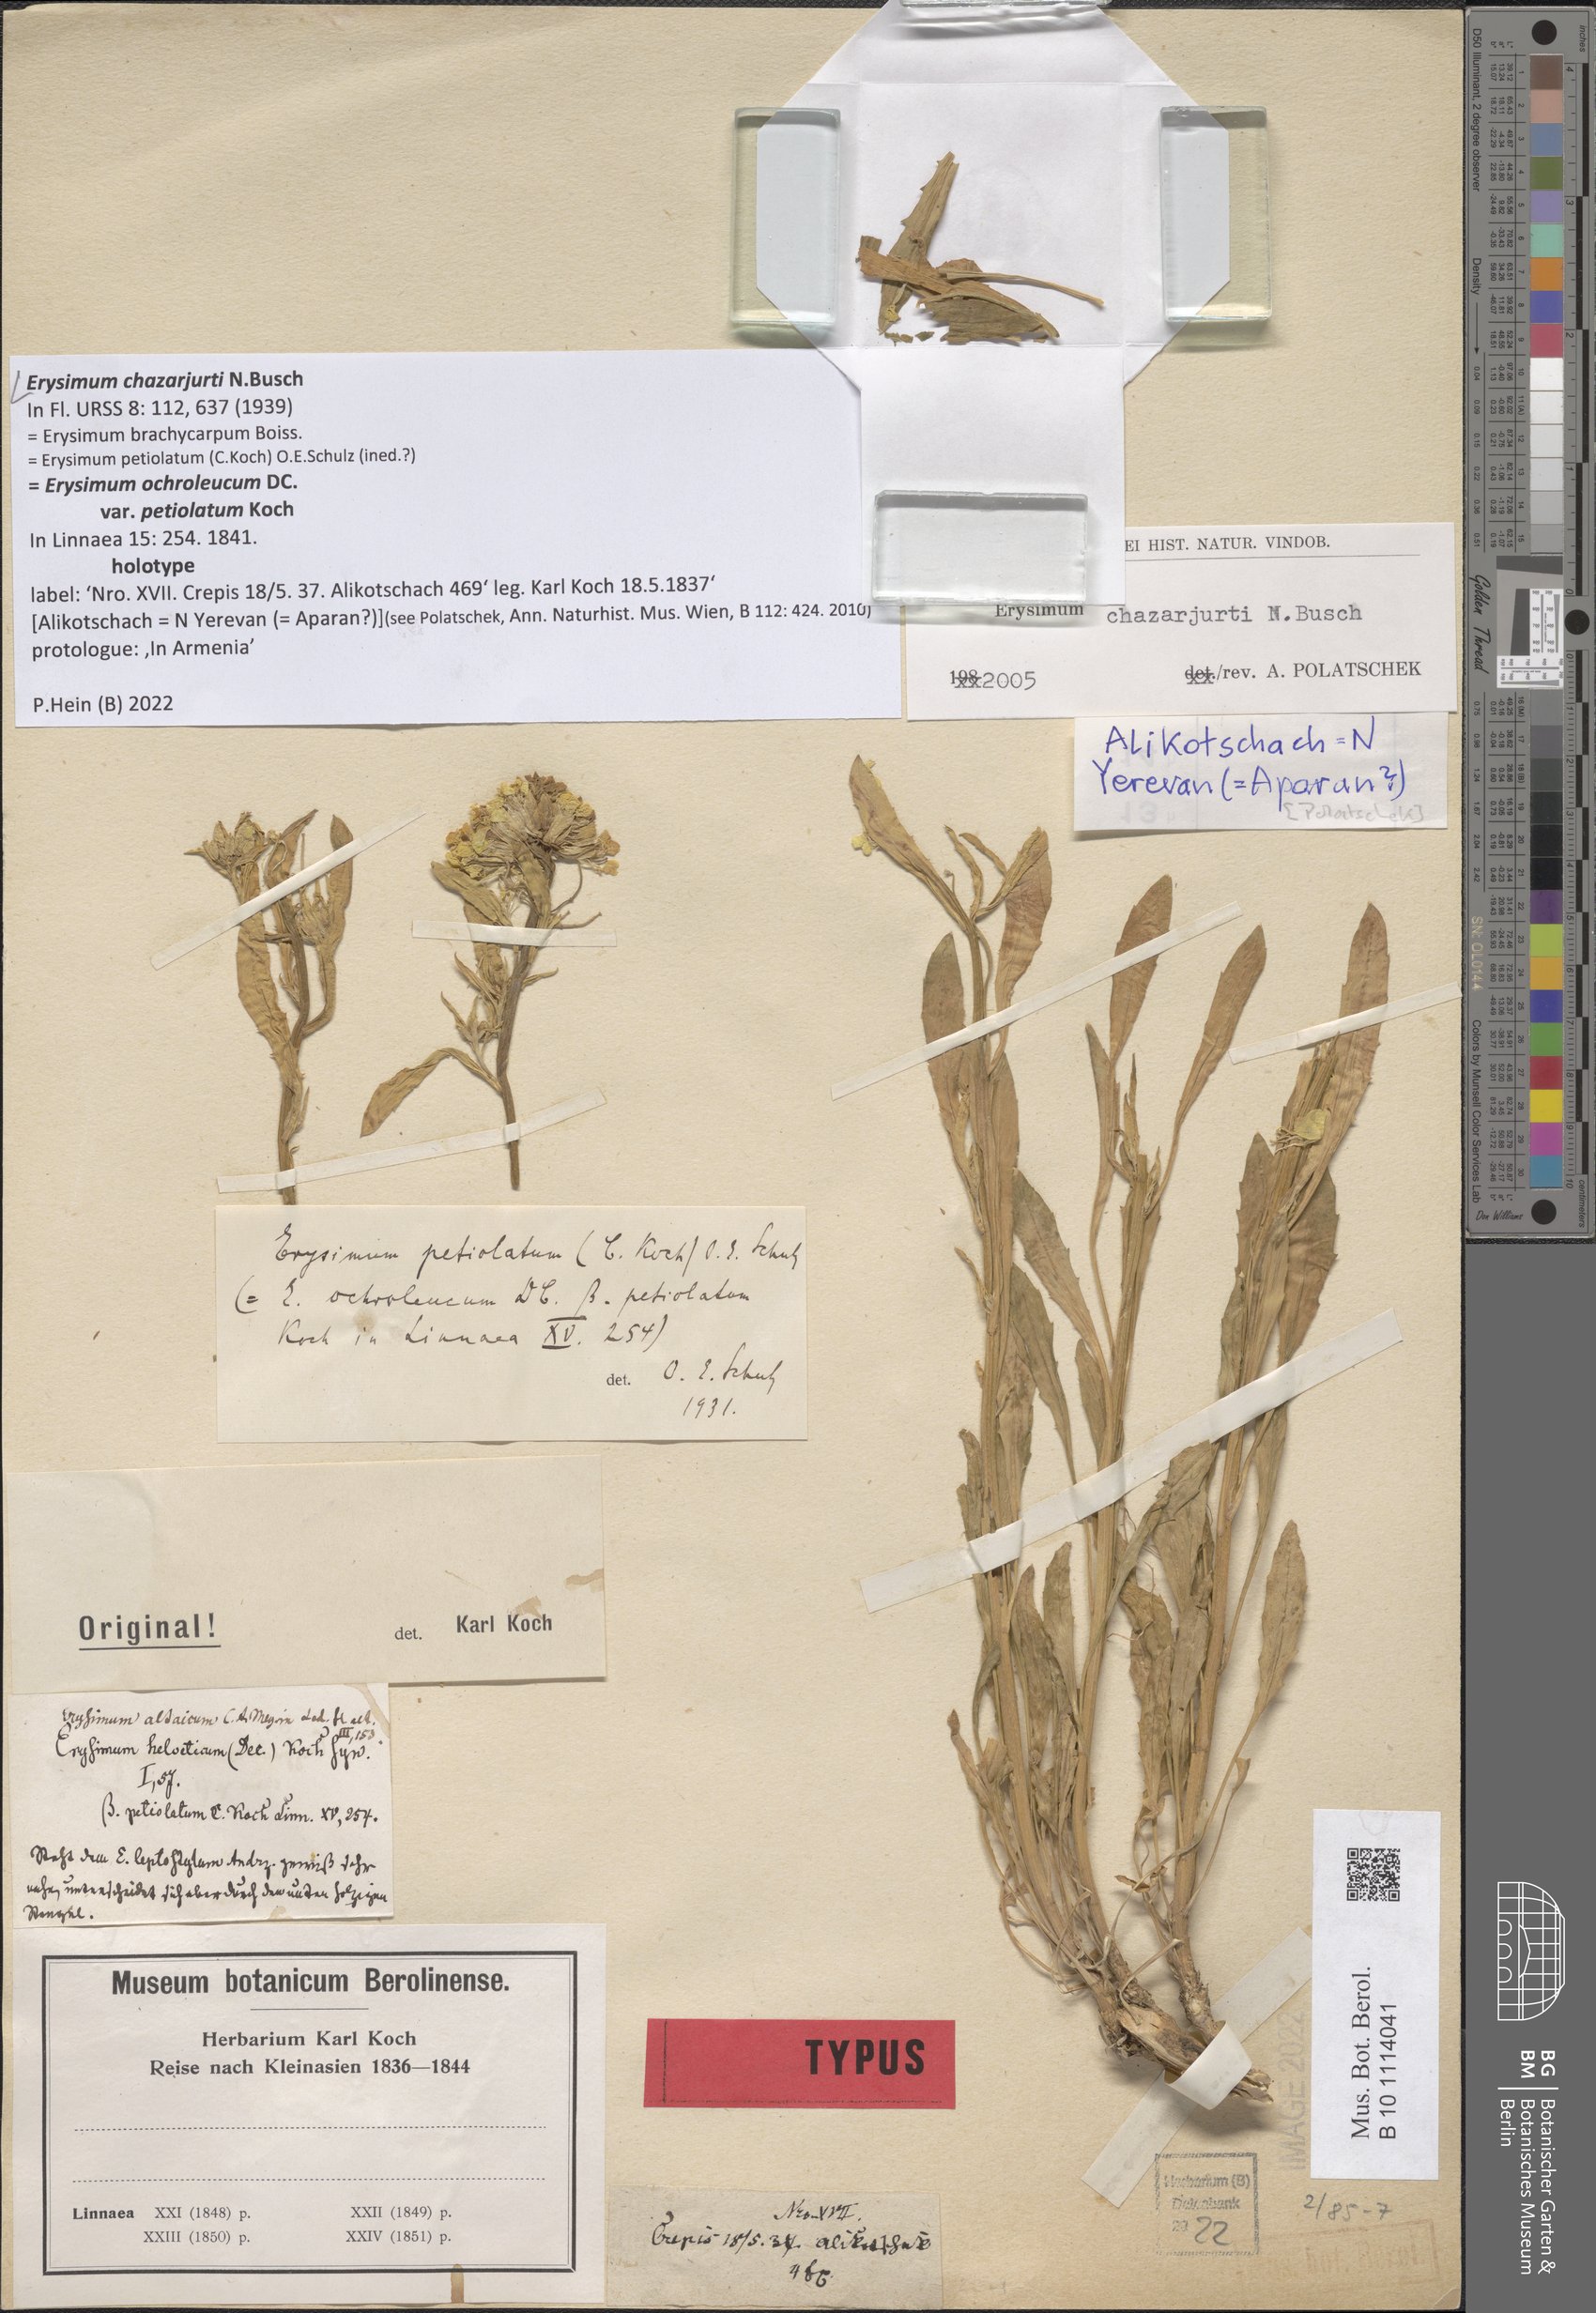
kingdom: Plantae
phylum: Tracheophyta
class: Magnoliopsida
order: Brassicales
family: Brassicaceae
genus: Erysimum
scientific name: Erysimum chazarjurti
